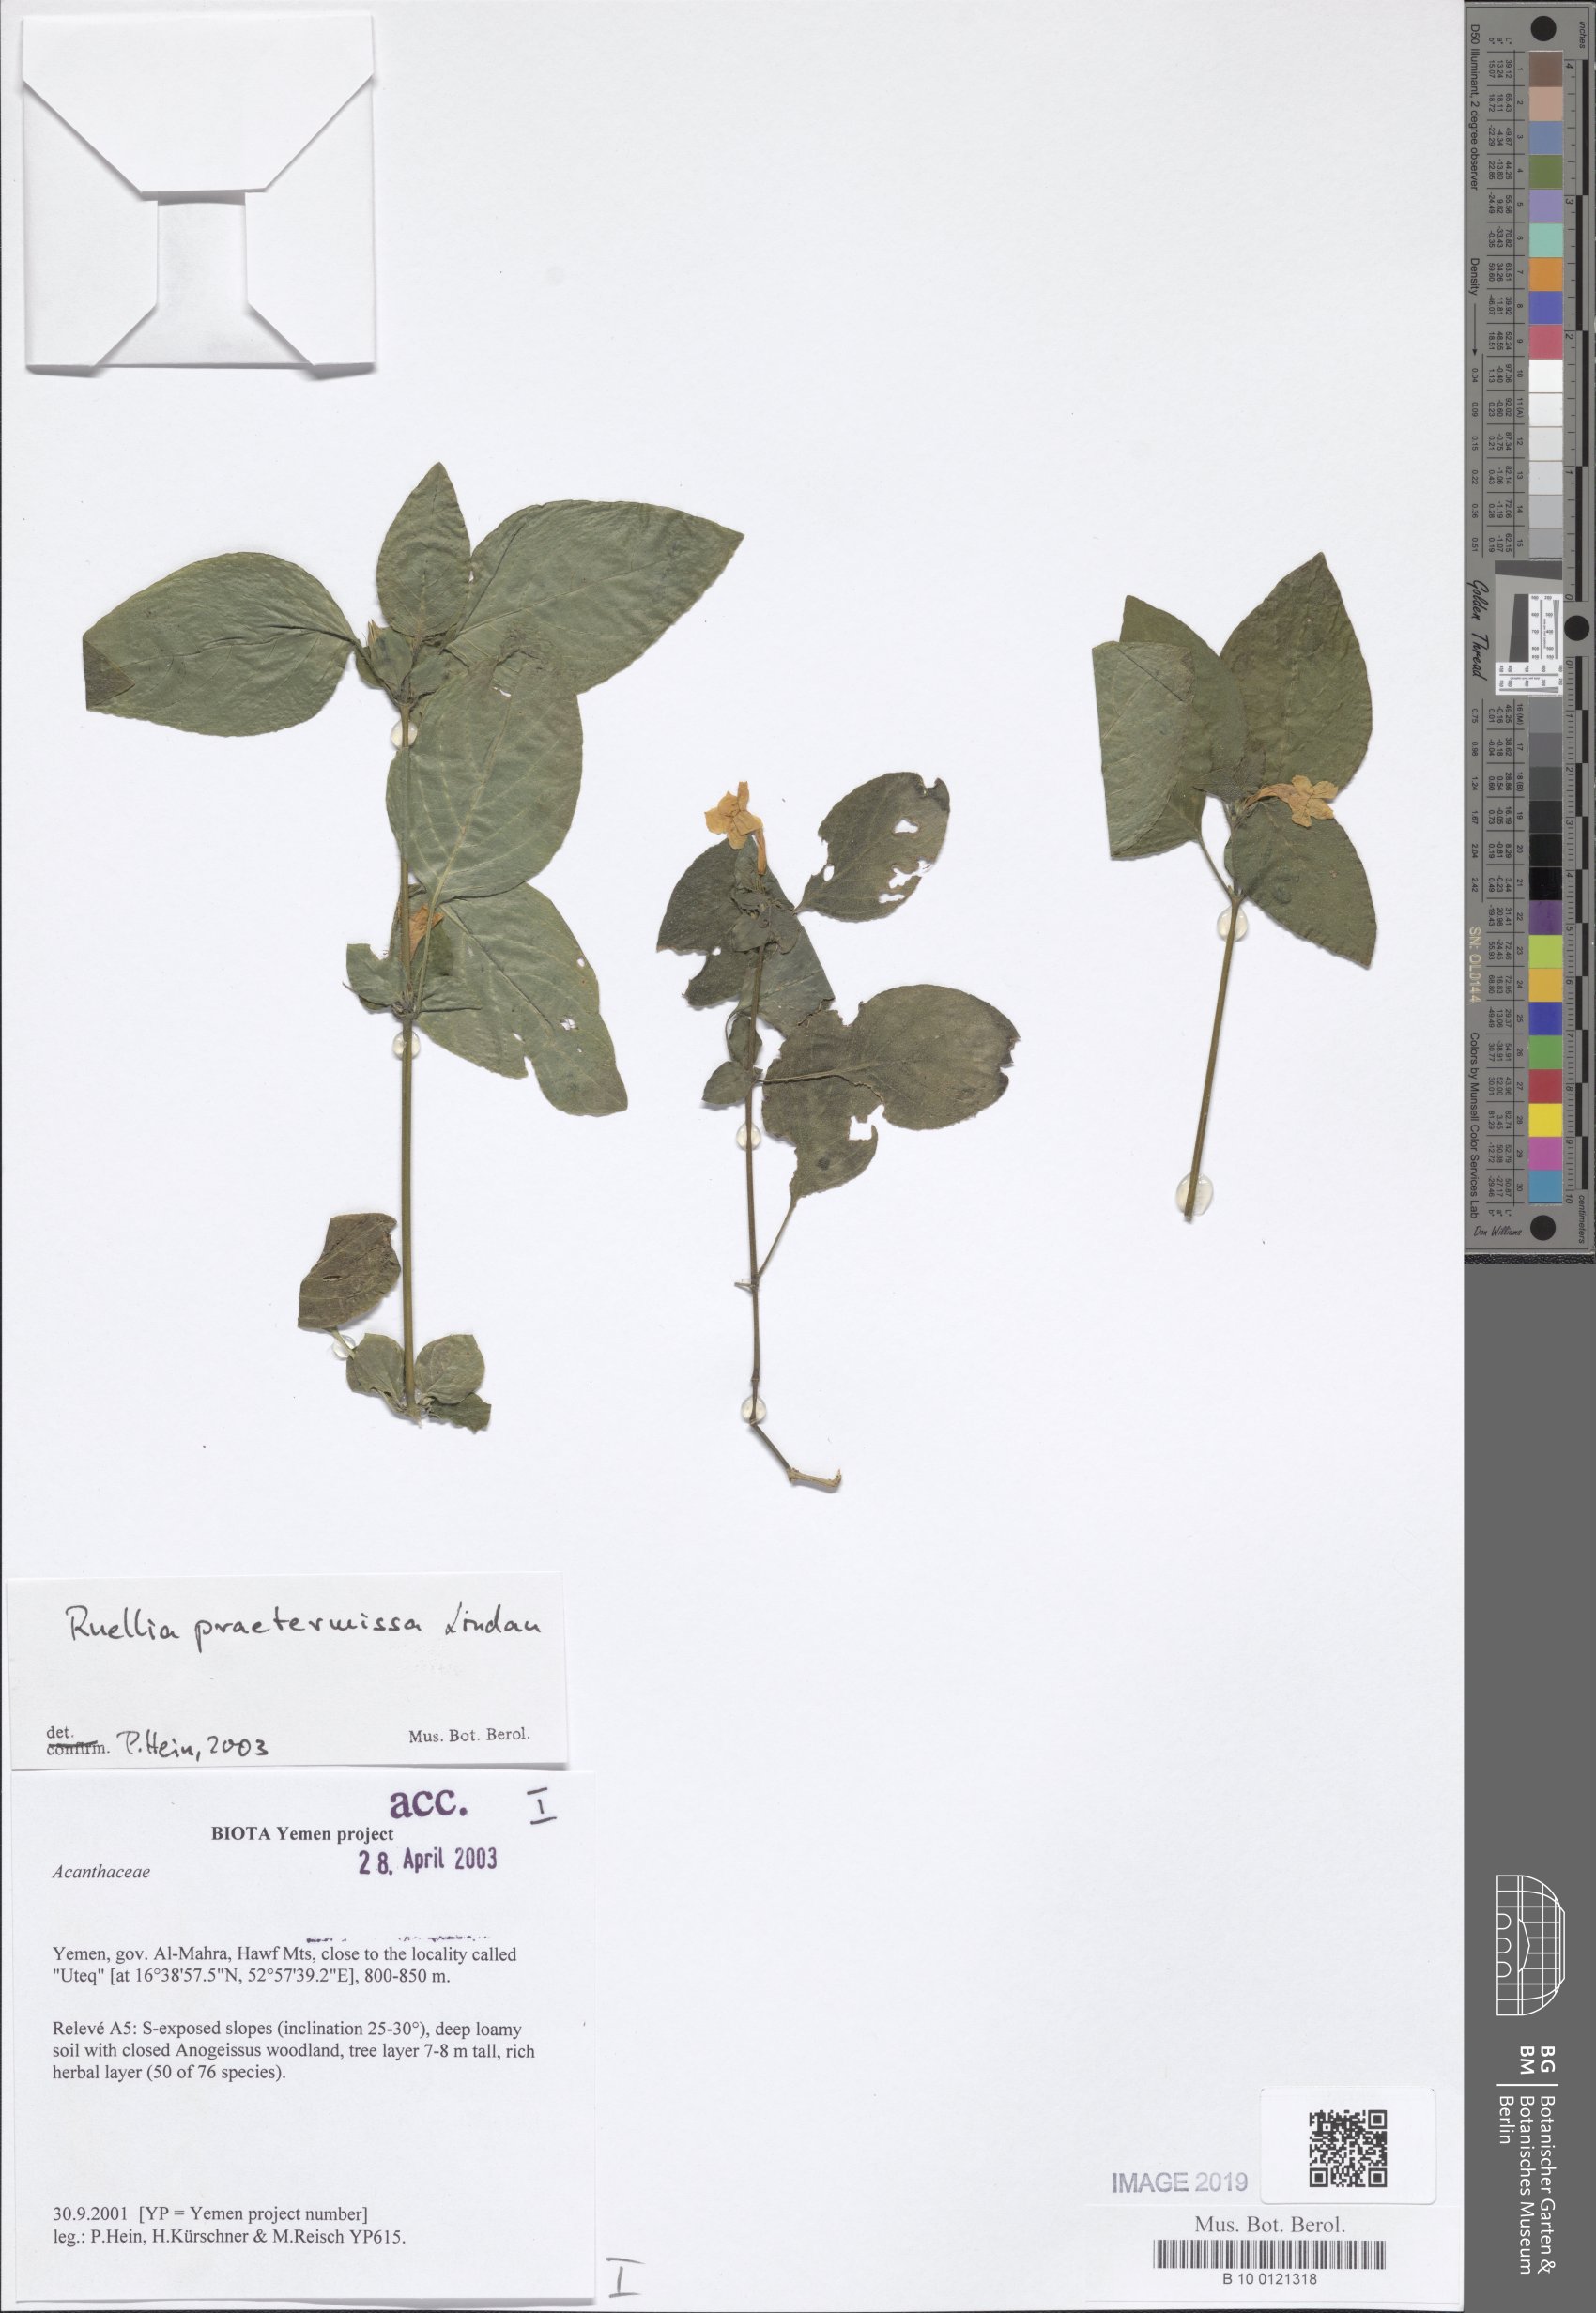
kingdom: Plantae
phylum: Tracheophyta
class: Magnoliopsida
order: Lamiales
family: Acanthaceae
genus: Ruellia
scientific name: Ruellia praetermissa
